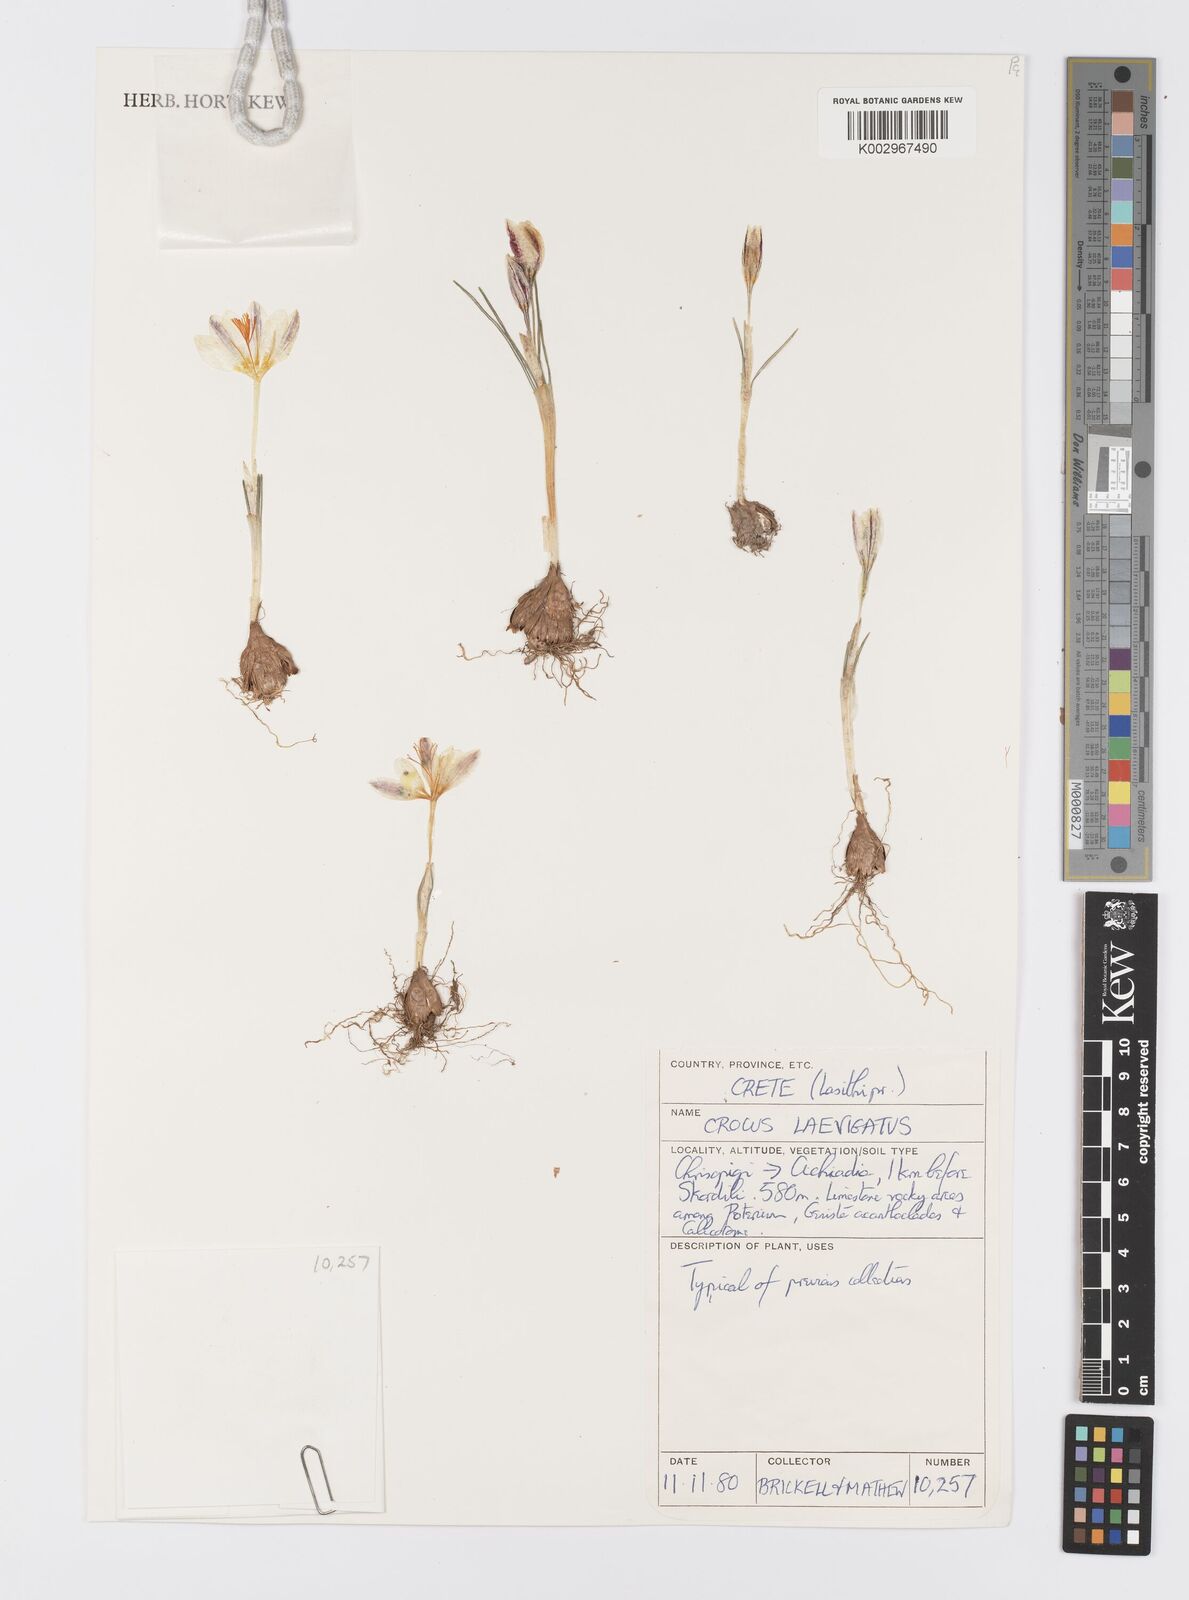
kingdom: Plantae
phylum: Tracheophyta
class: Liliopsida
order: Asparagales
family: Iridaceae
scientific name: Iridaceae
